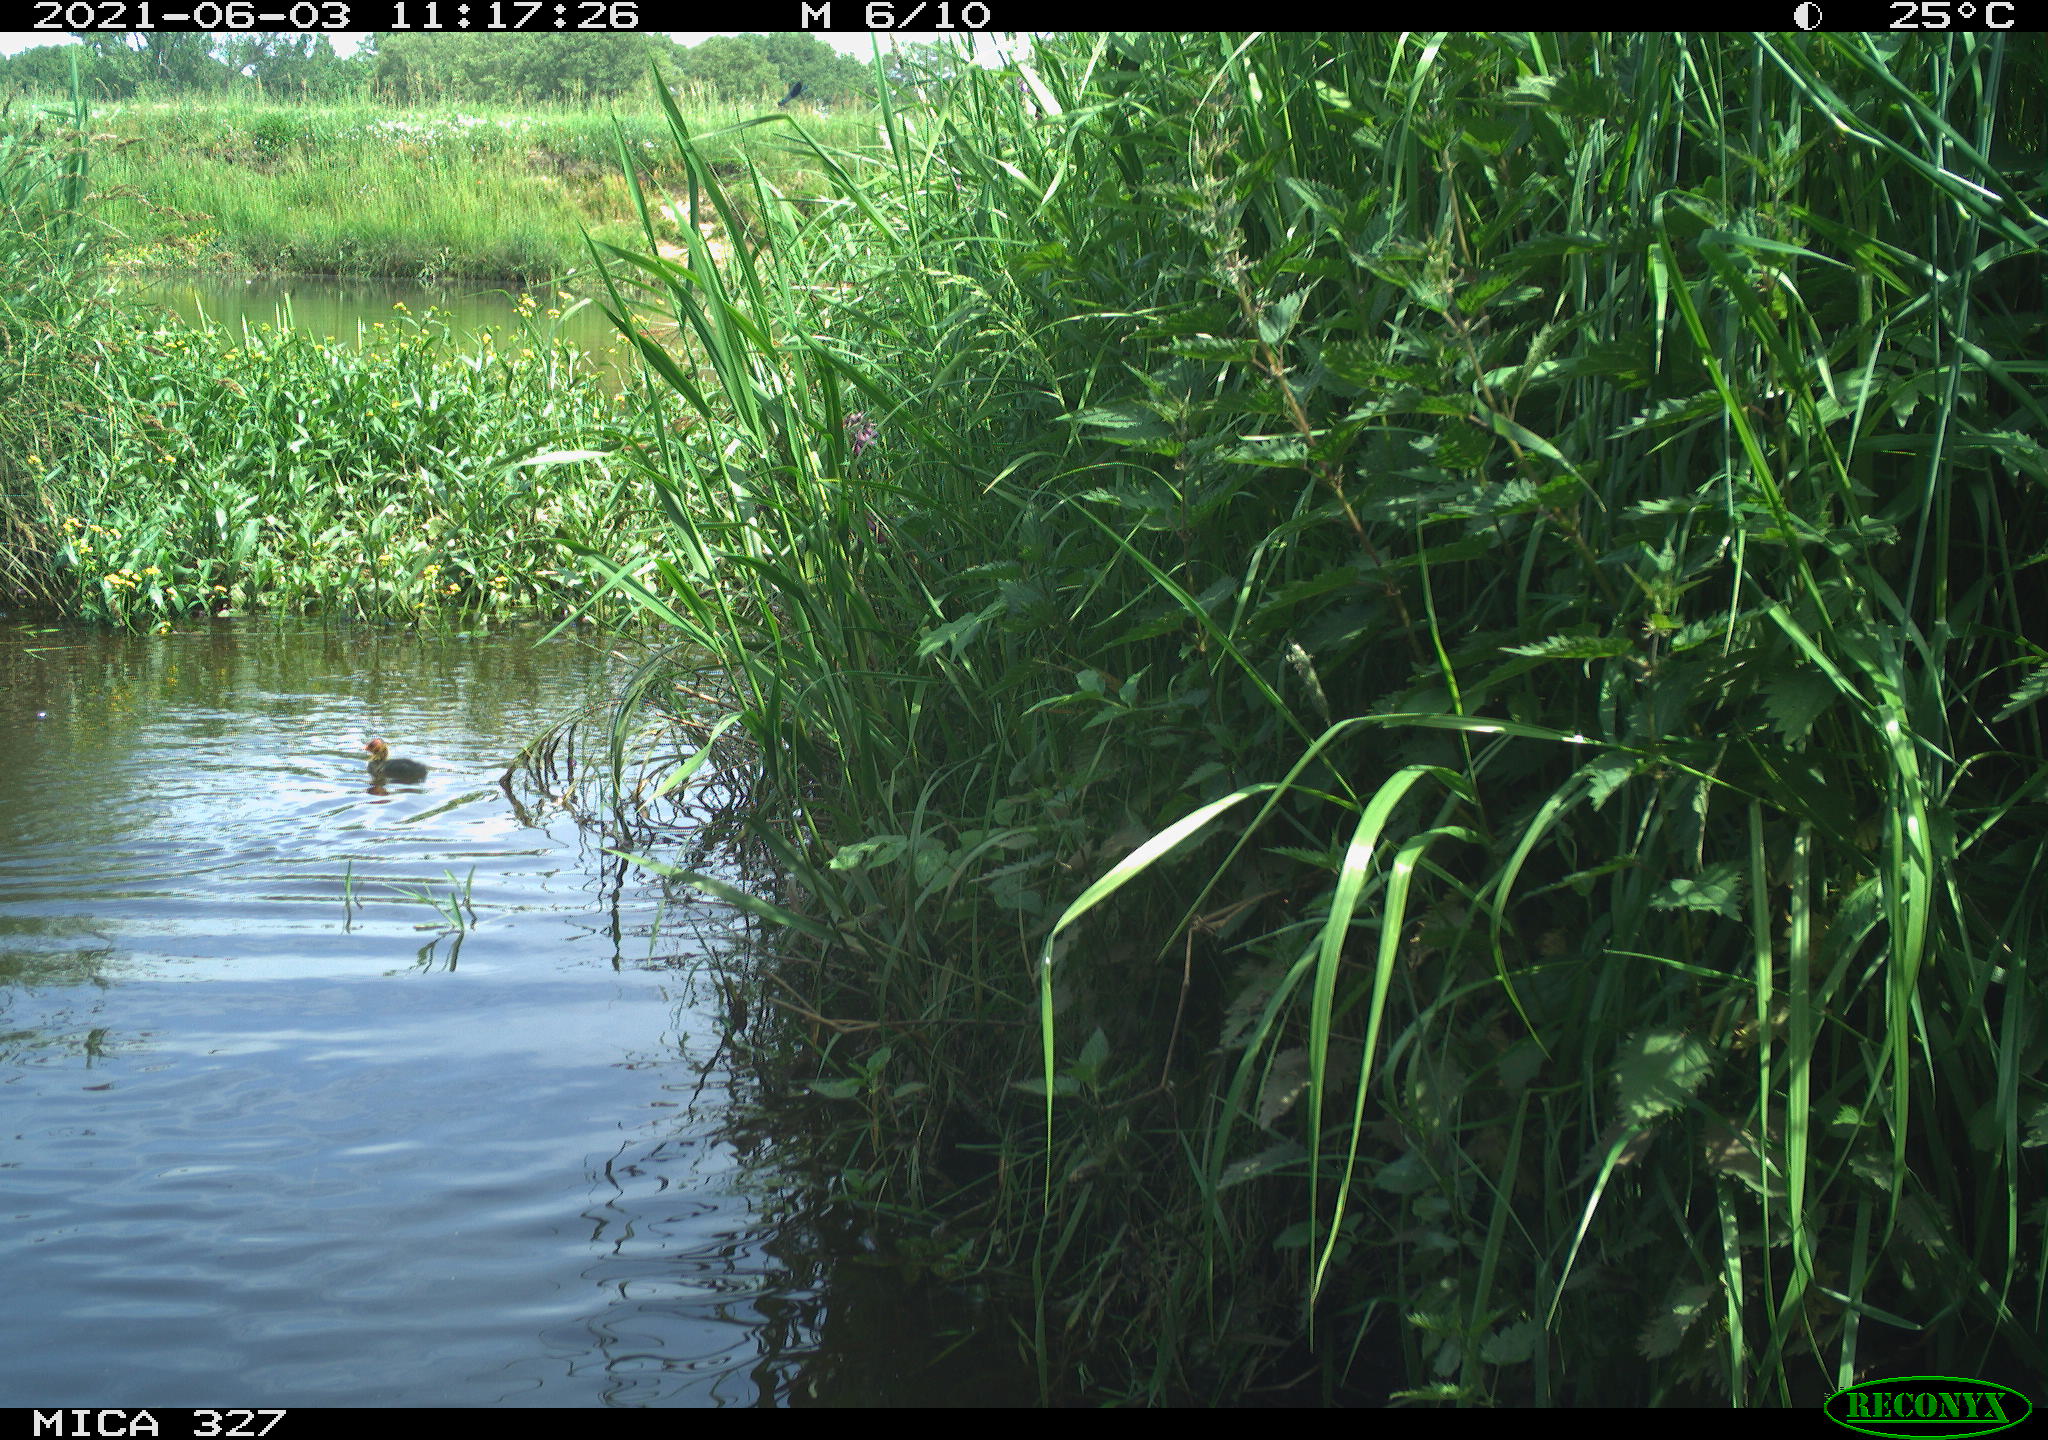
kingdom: Animalia
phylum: Chordata
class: Aves
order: Gruiformes
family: Rallidae
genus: Fulica
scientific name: Fulica atra
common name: Eurasian coot
